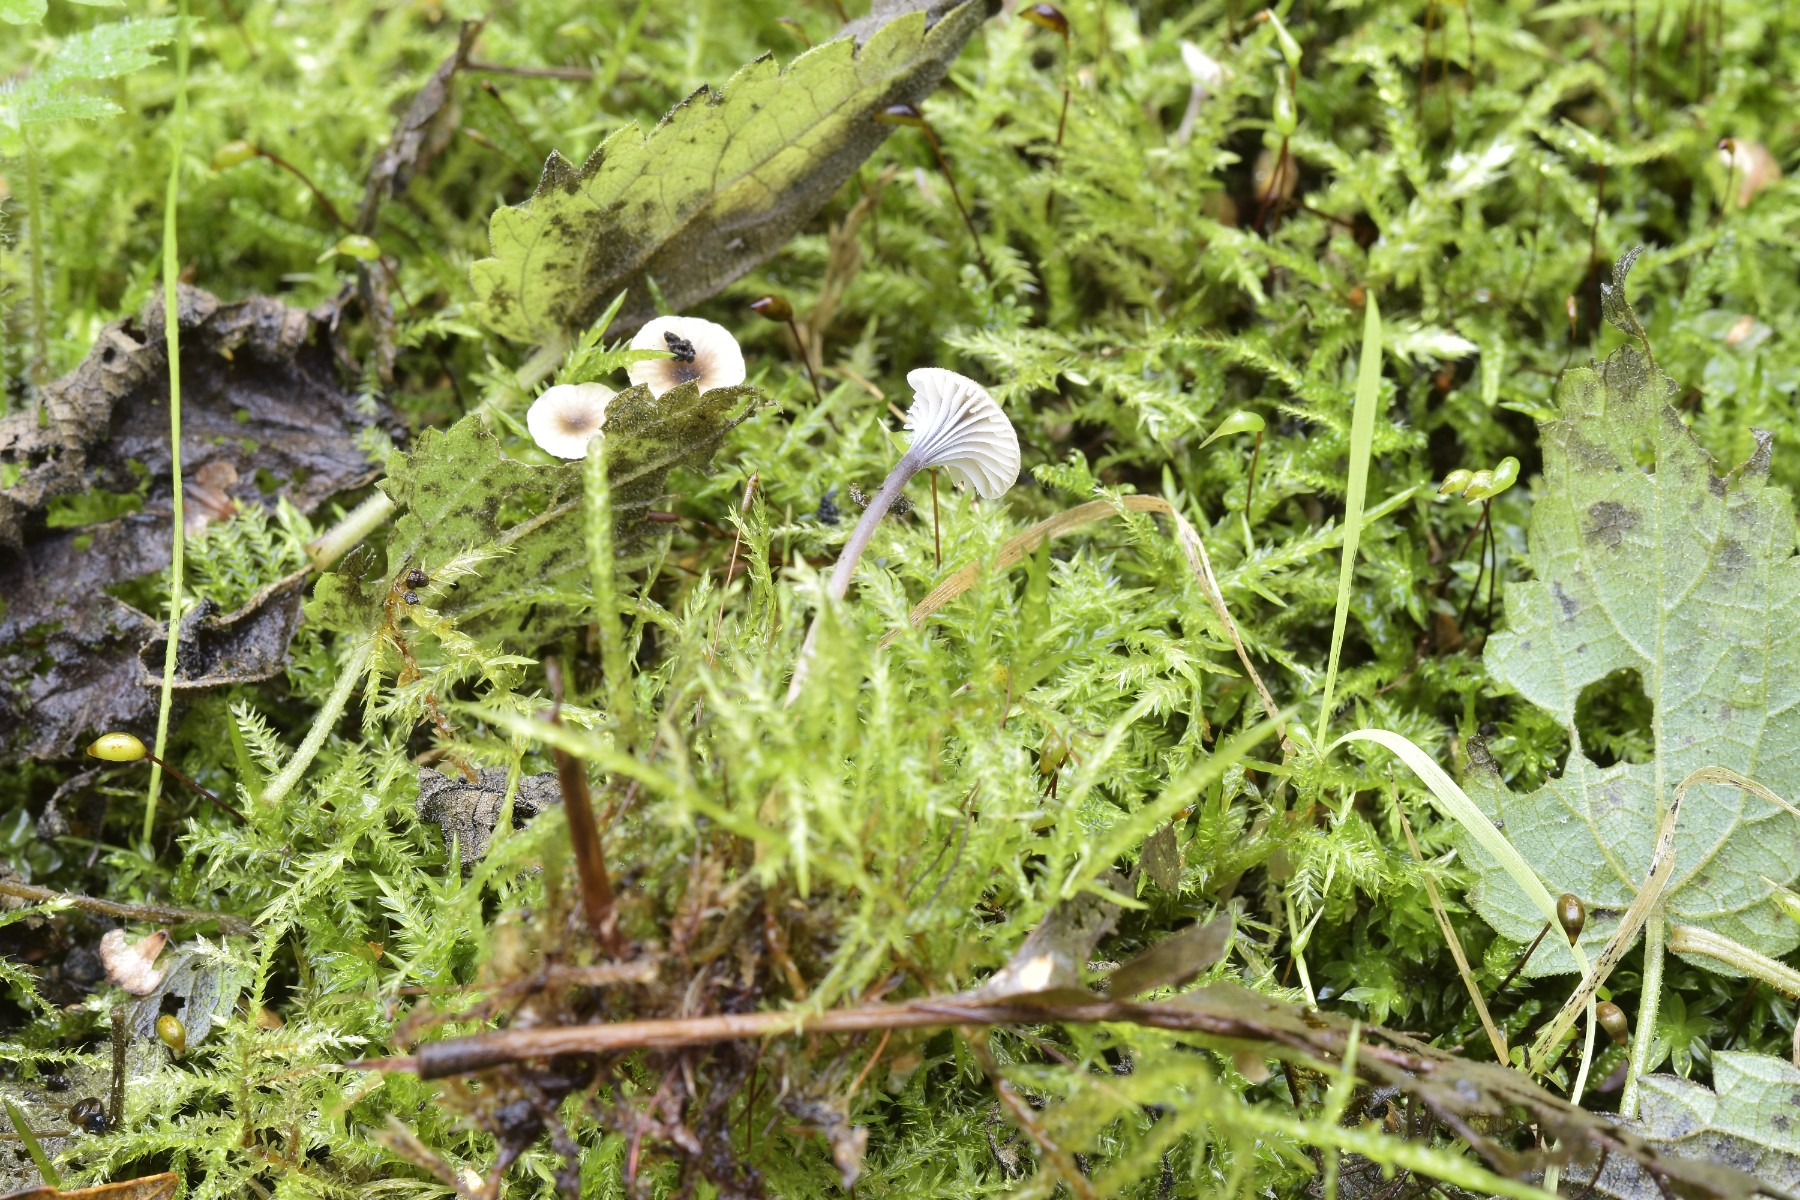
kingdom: Fungi
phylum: Basidiomycota
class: Agaricomycetes
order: Hymenochaetales
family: Rickenellaceae
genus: Rickenella
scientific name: Rickenella swartzii
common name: finstokket mosnavlehat
